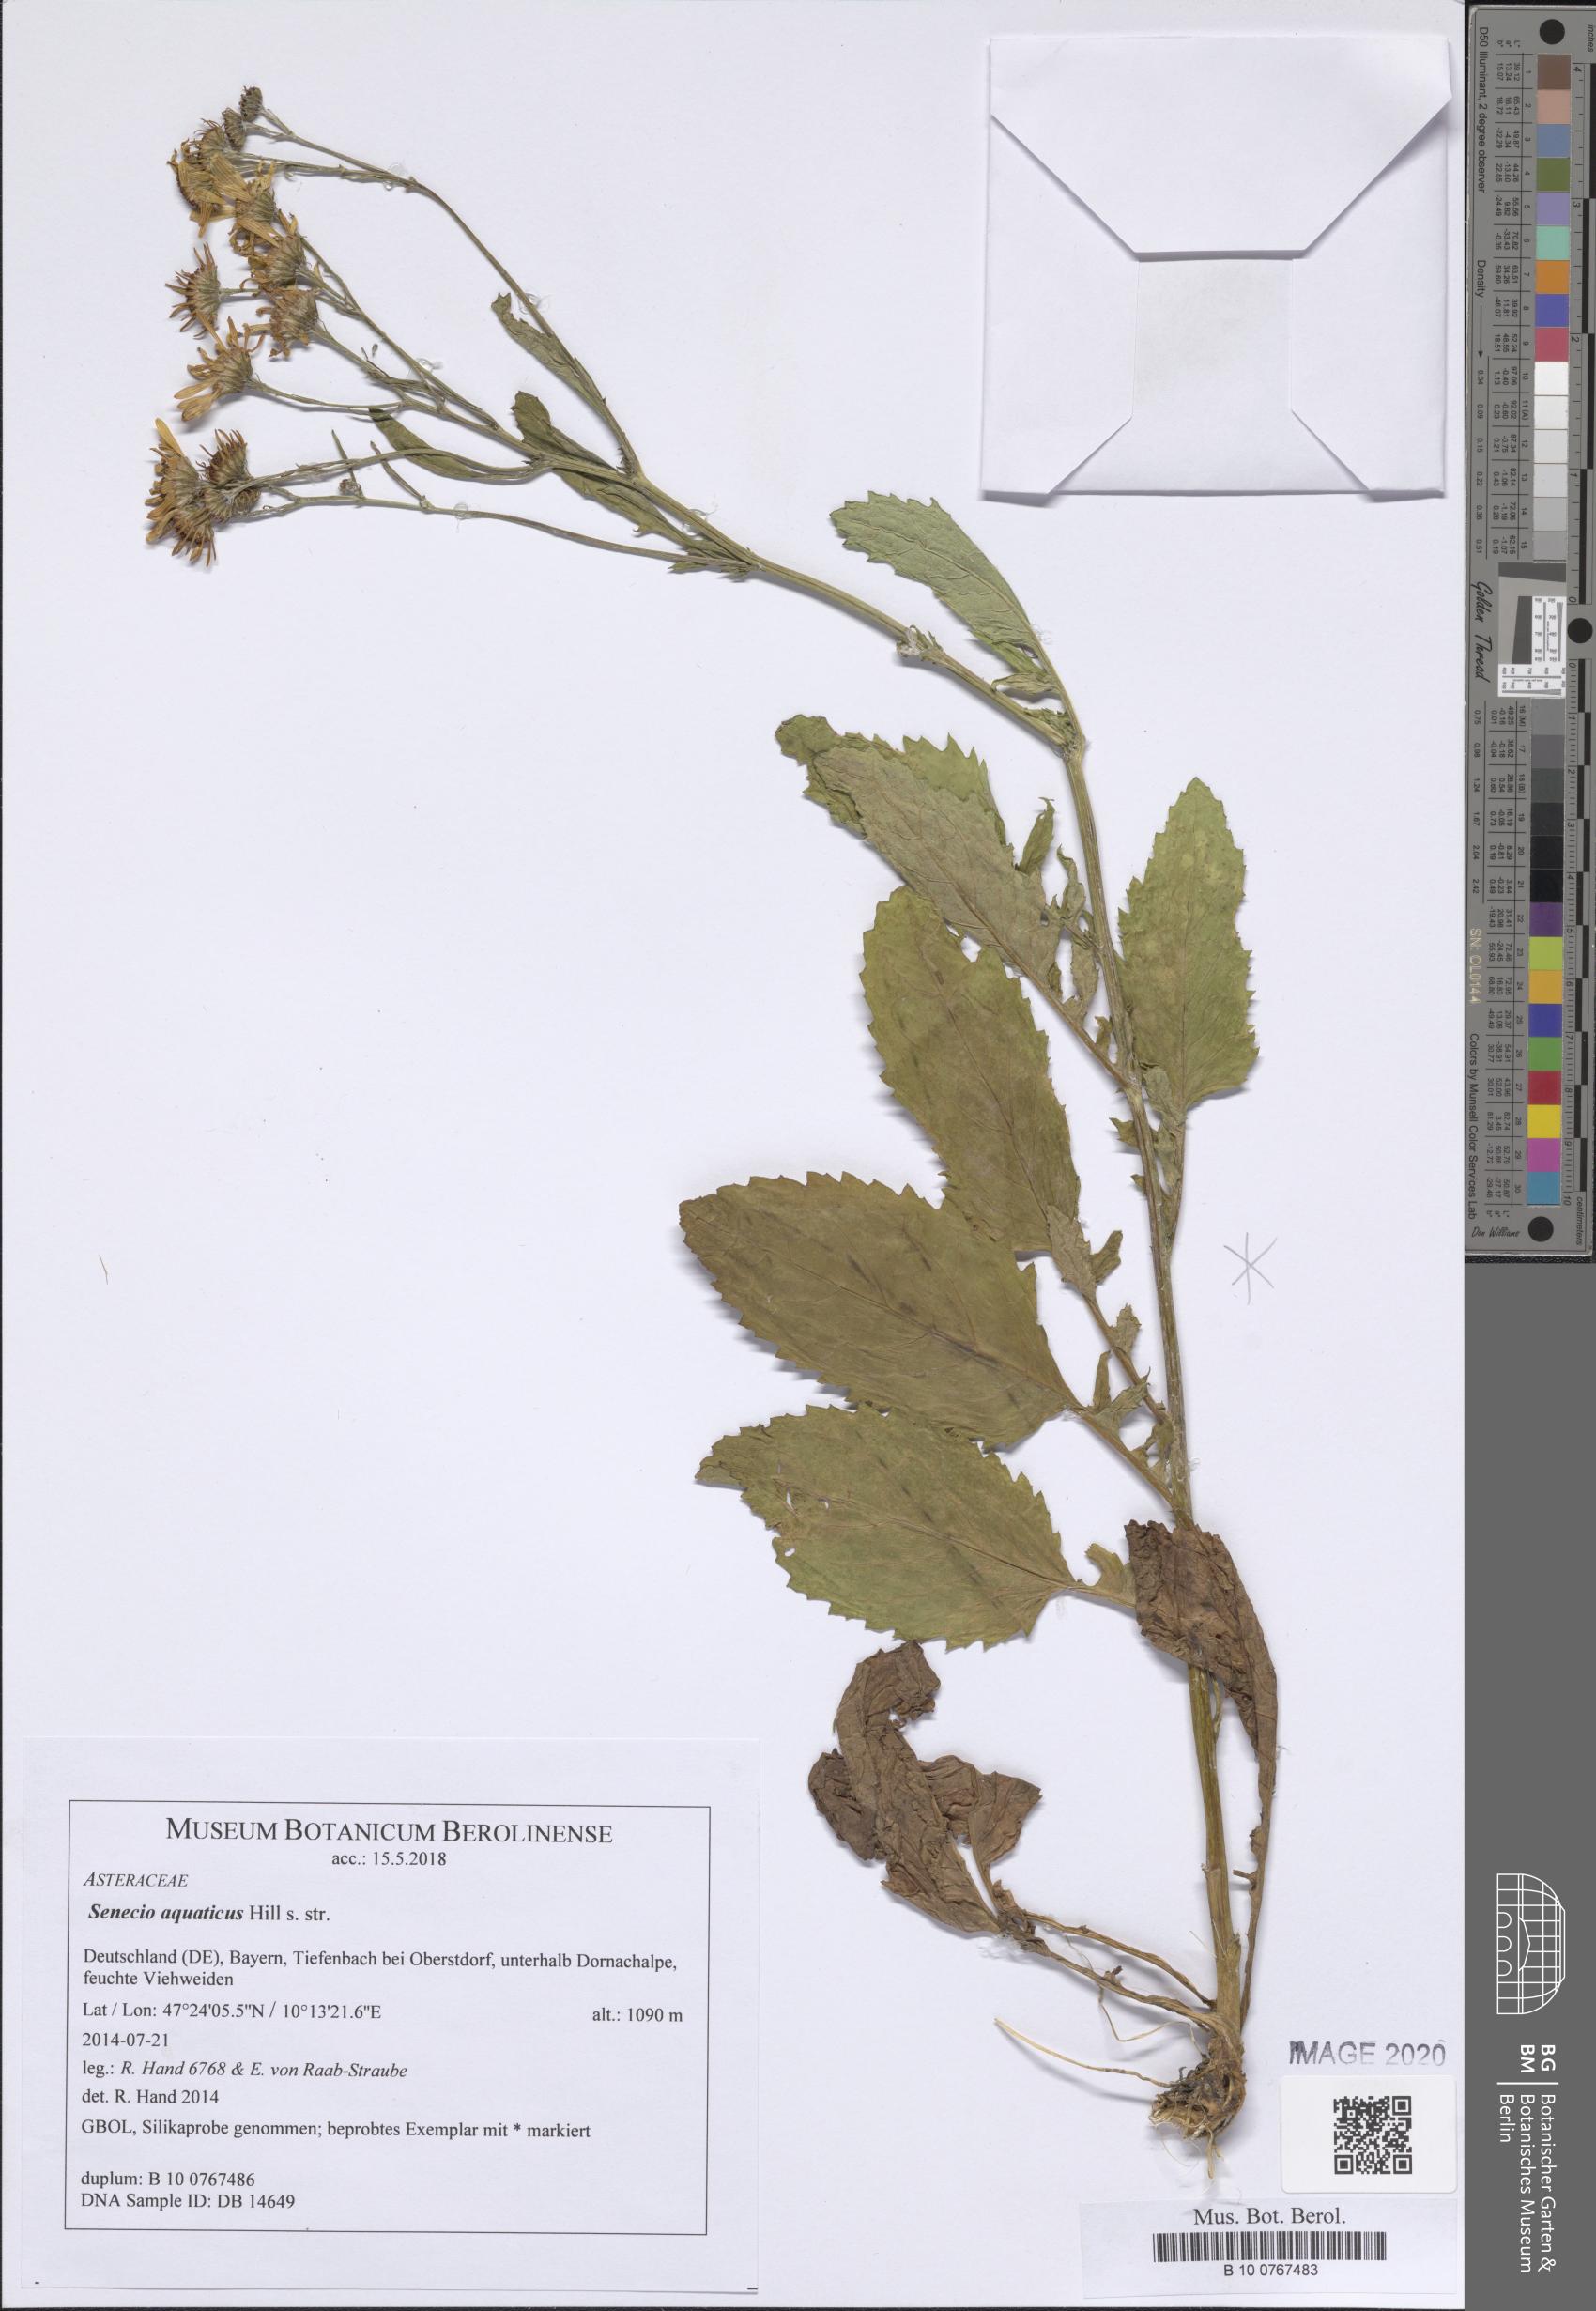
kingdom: Plantae
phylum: Tracheophyta
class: Magnoliopsida
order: Asterales
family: Asteraceae
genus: Jacobaea
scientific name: Jacobaea aquatica
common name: Water ragwort
